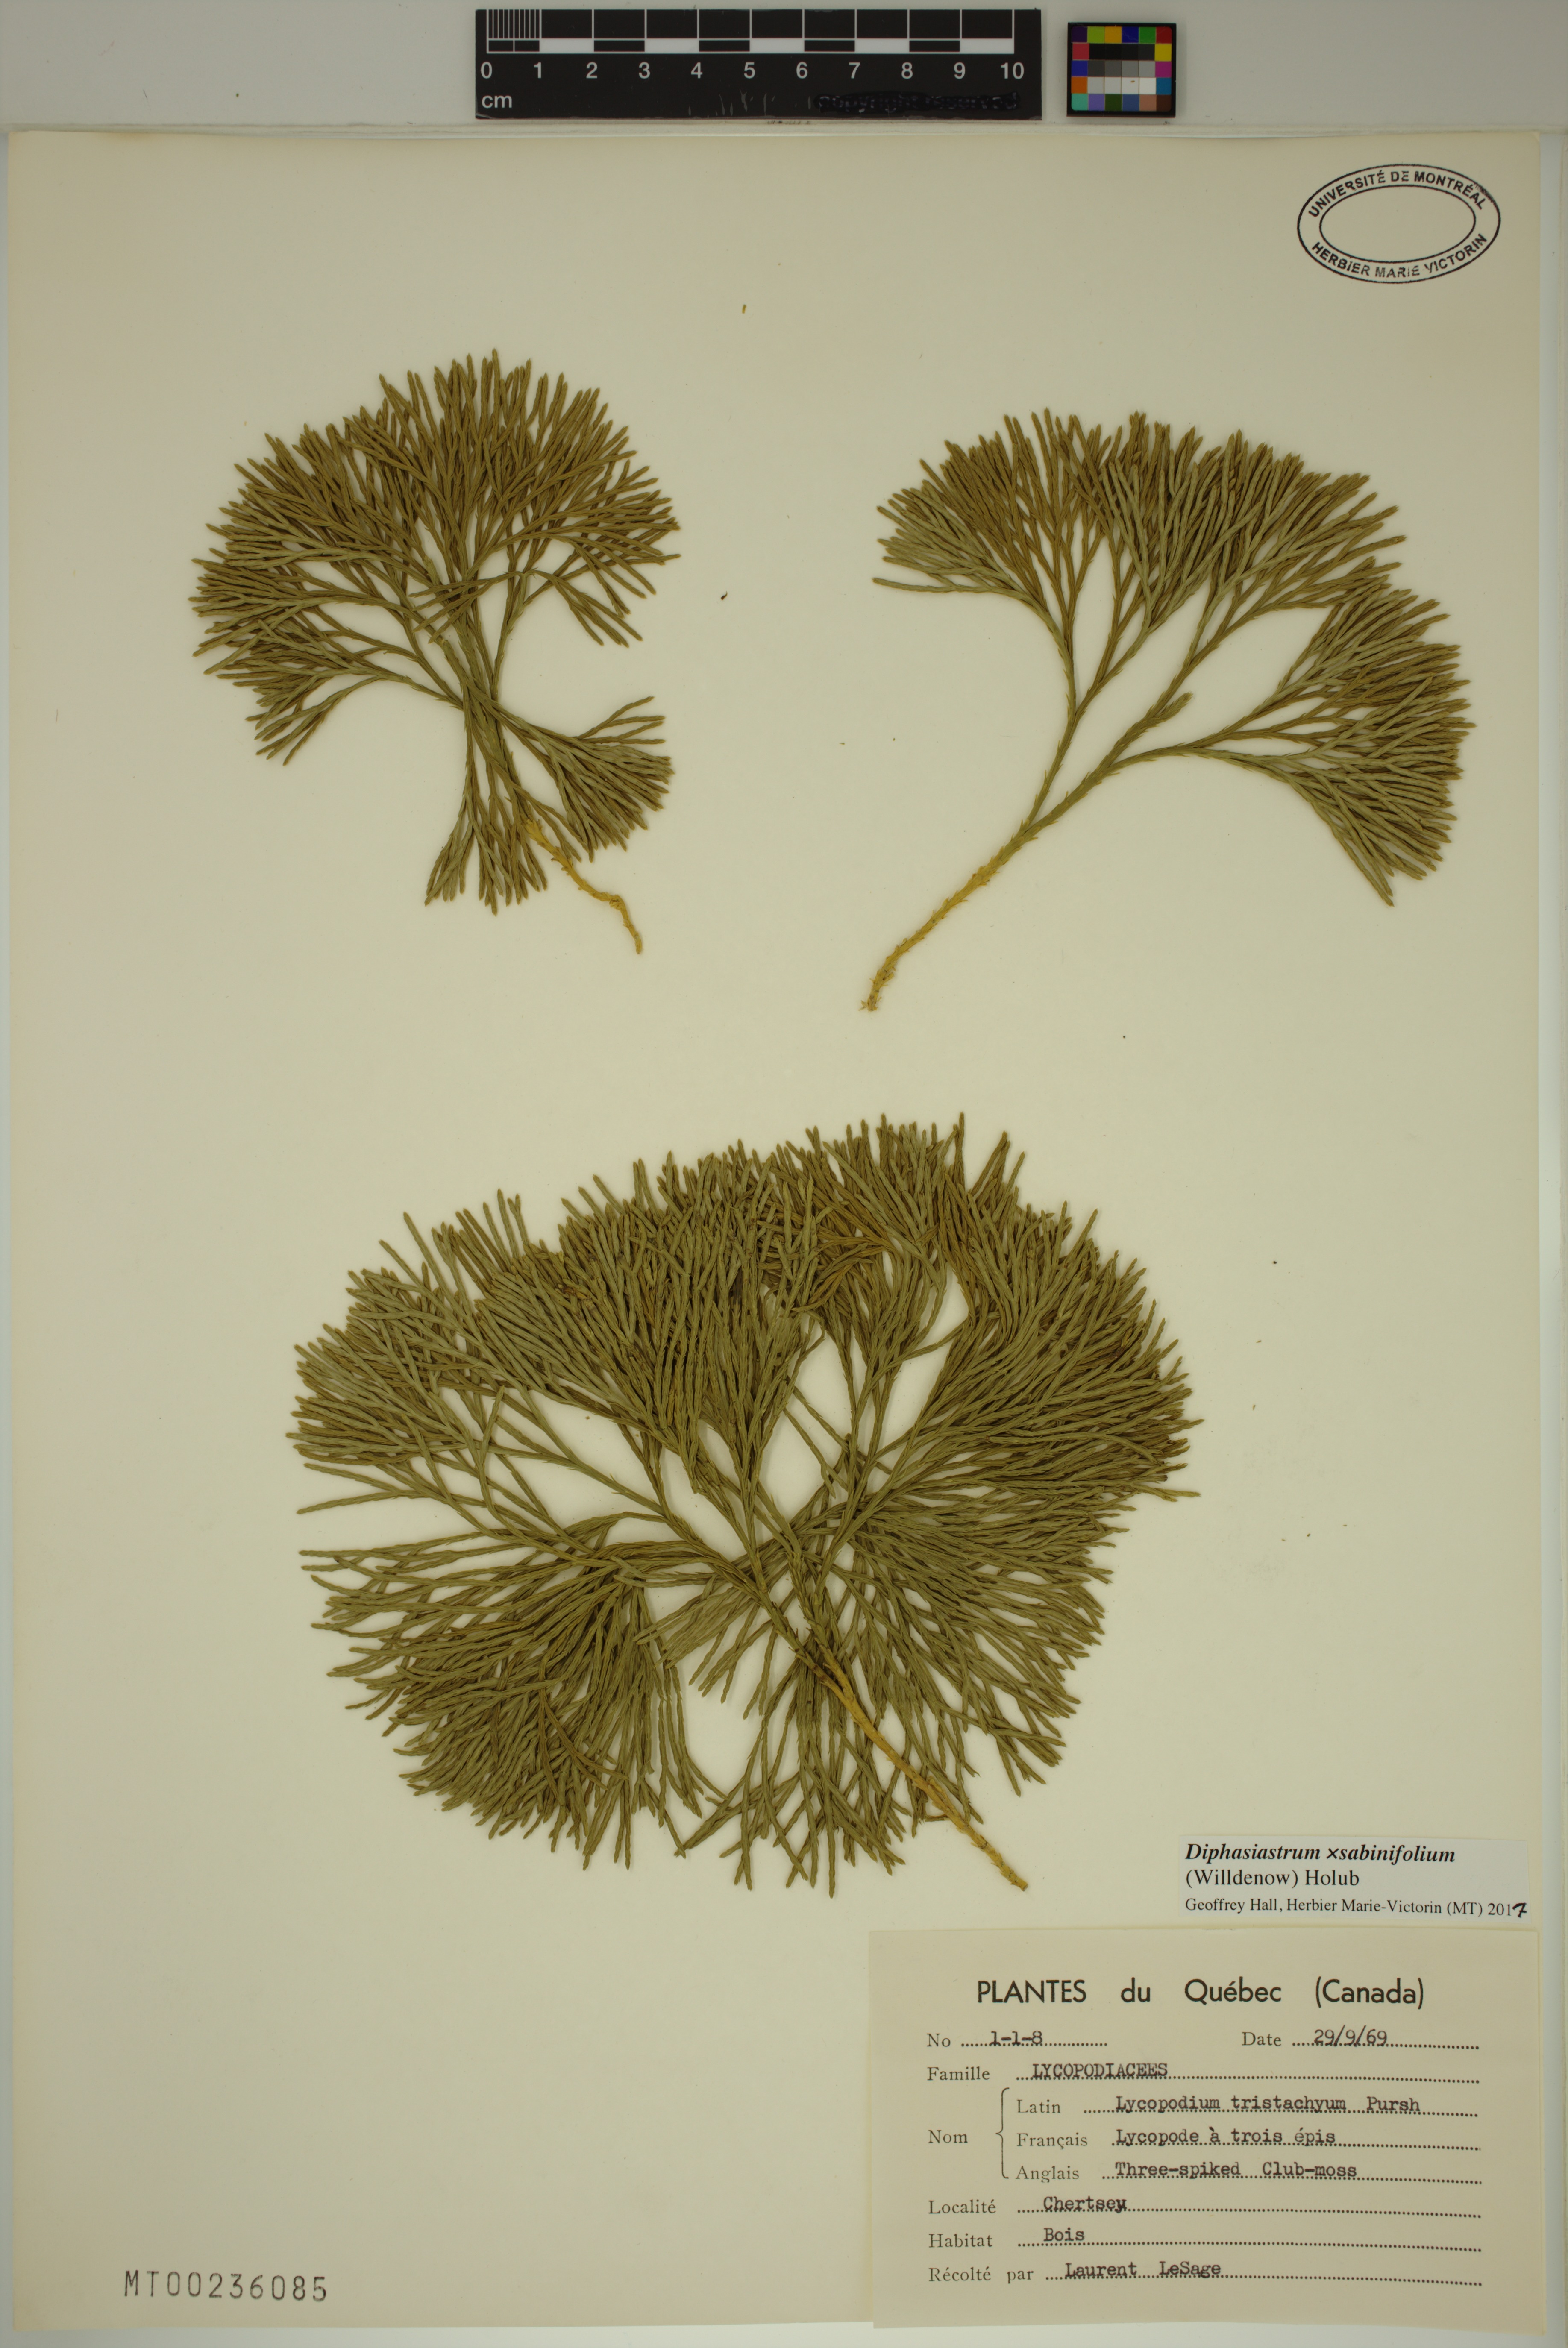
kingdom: Plantae
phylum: Tracheophyta
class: Lycopodiopsida
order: Lycopodiales
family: Lycopodiaceae
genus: Diphasiastrum
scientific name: Diphasiastrum sabinifolium
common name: Juniper clubmoss
